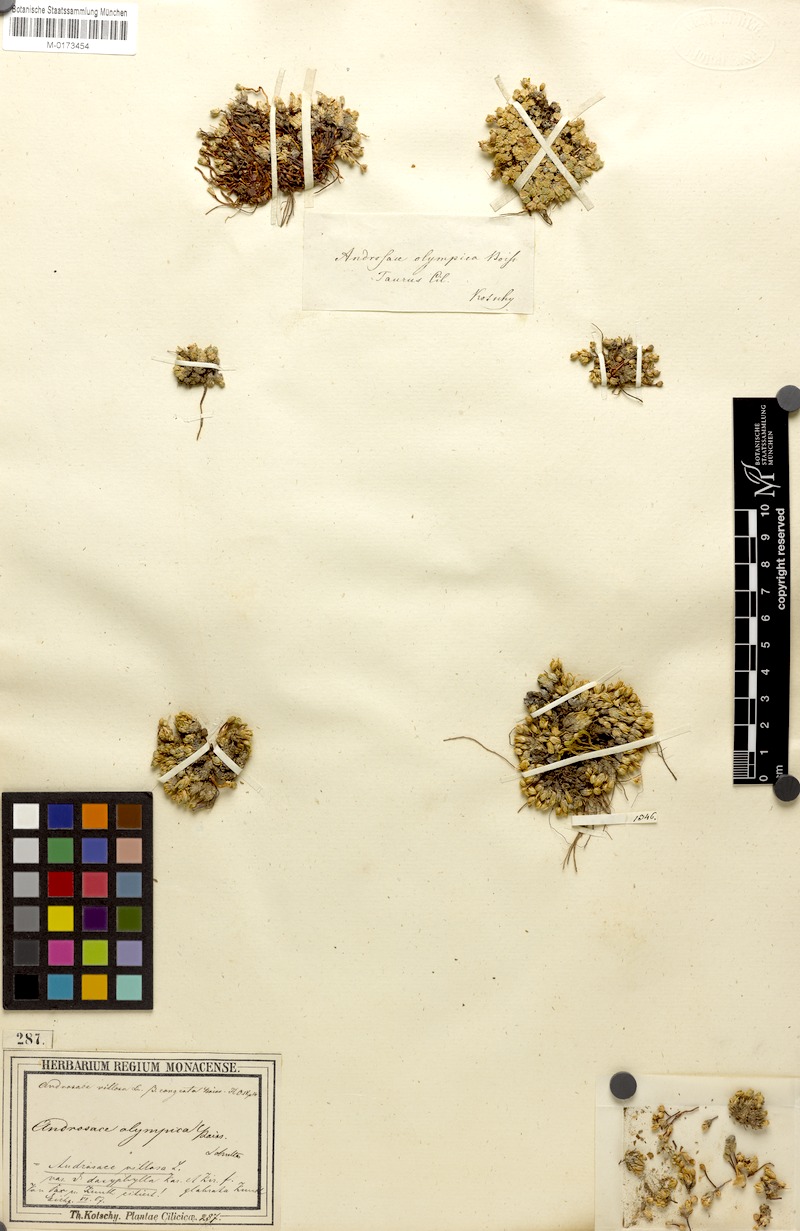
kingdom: Plantae
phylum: Tracheophyta
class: Magnoliopsida
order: Ericales
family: Primulaceae
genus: Androsace
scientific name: Androsace villosa
